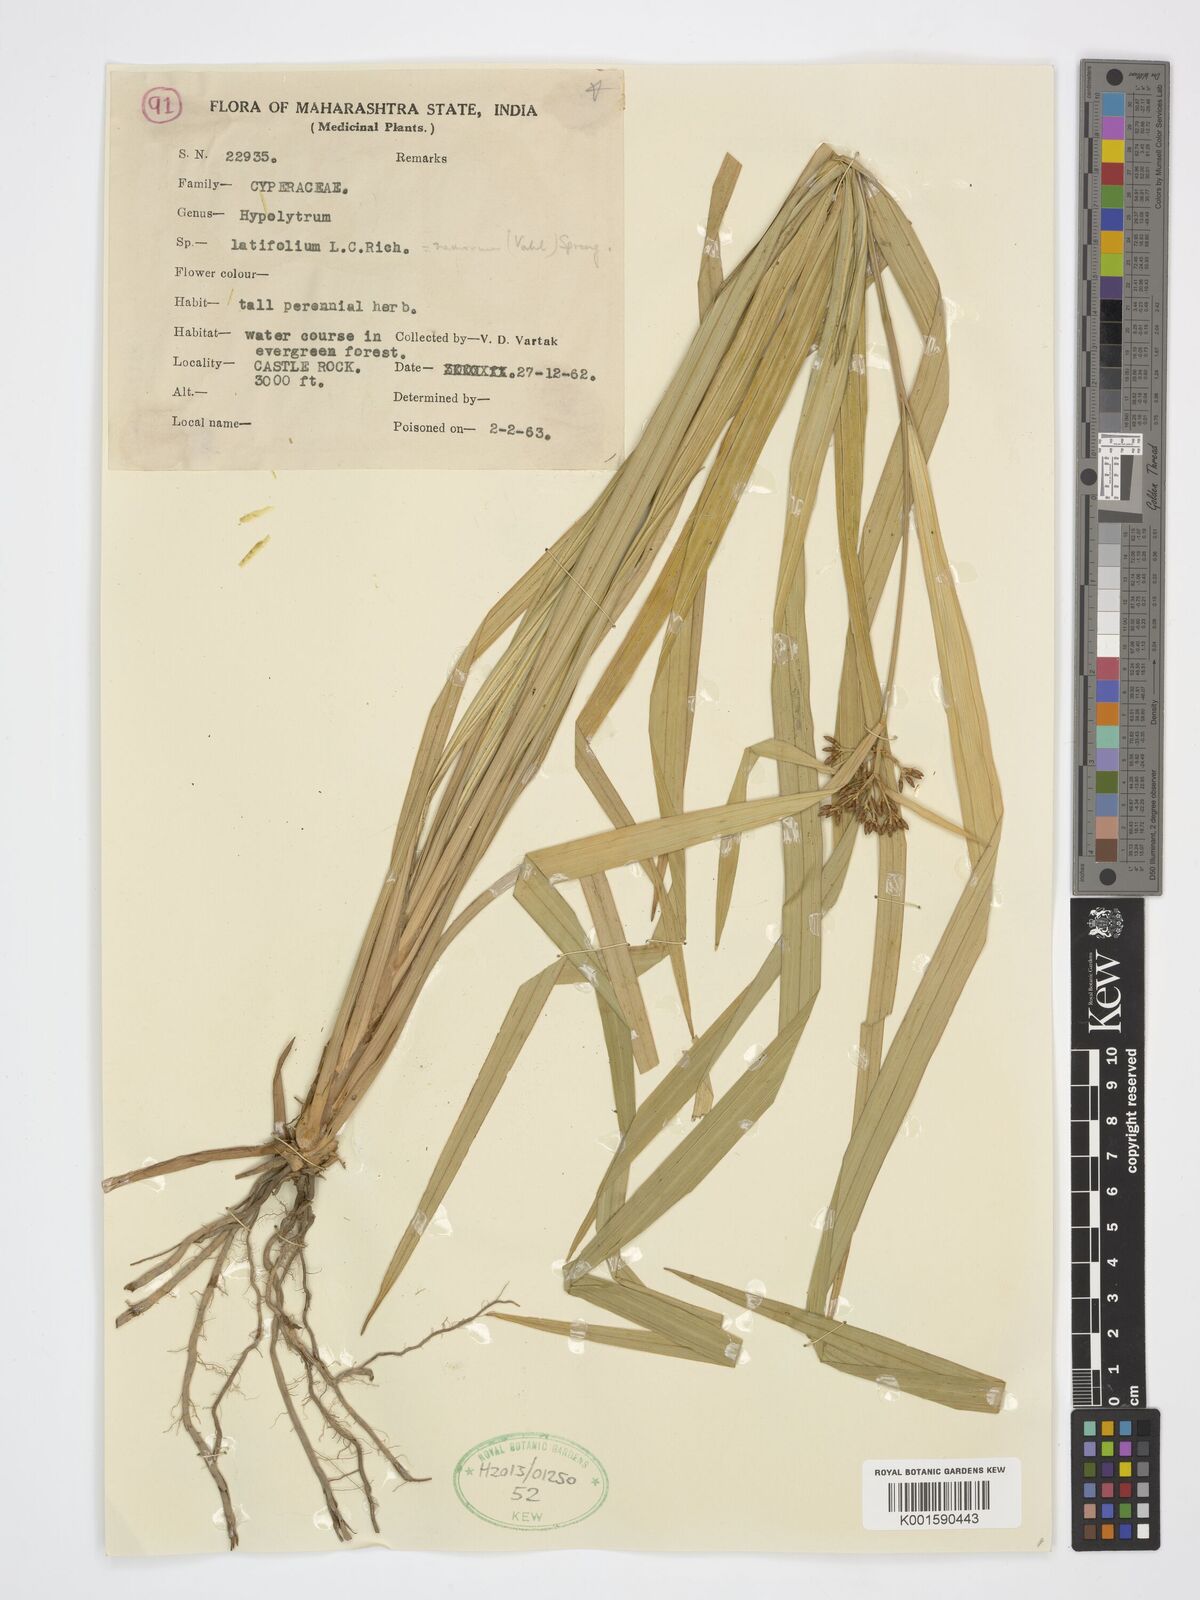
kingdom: Plantae
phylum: Tracheophyta
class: Liliopsida
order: Poales
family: Cyperaceae
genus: Hypolytrum
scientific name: Hypolytrum
